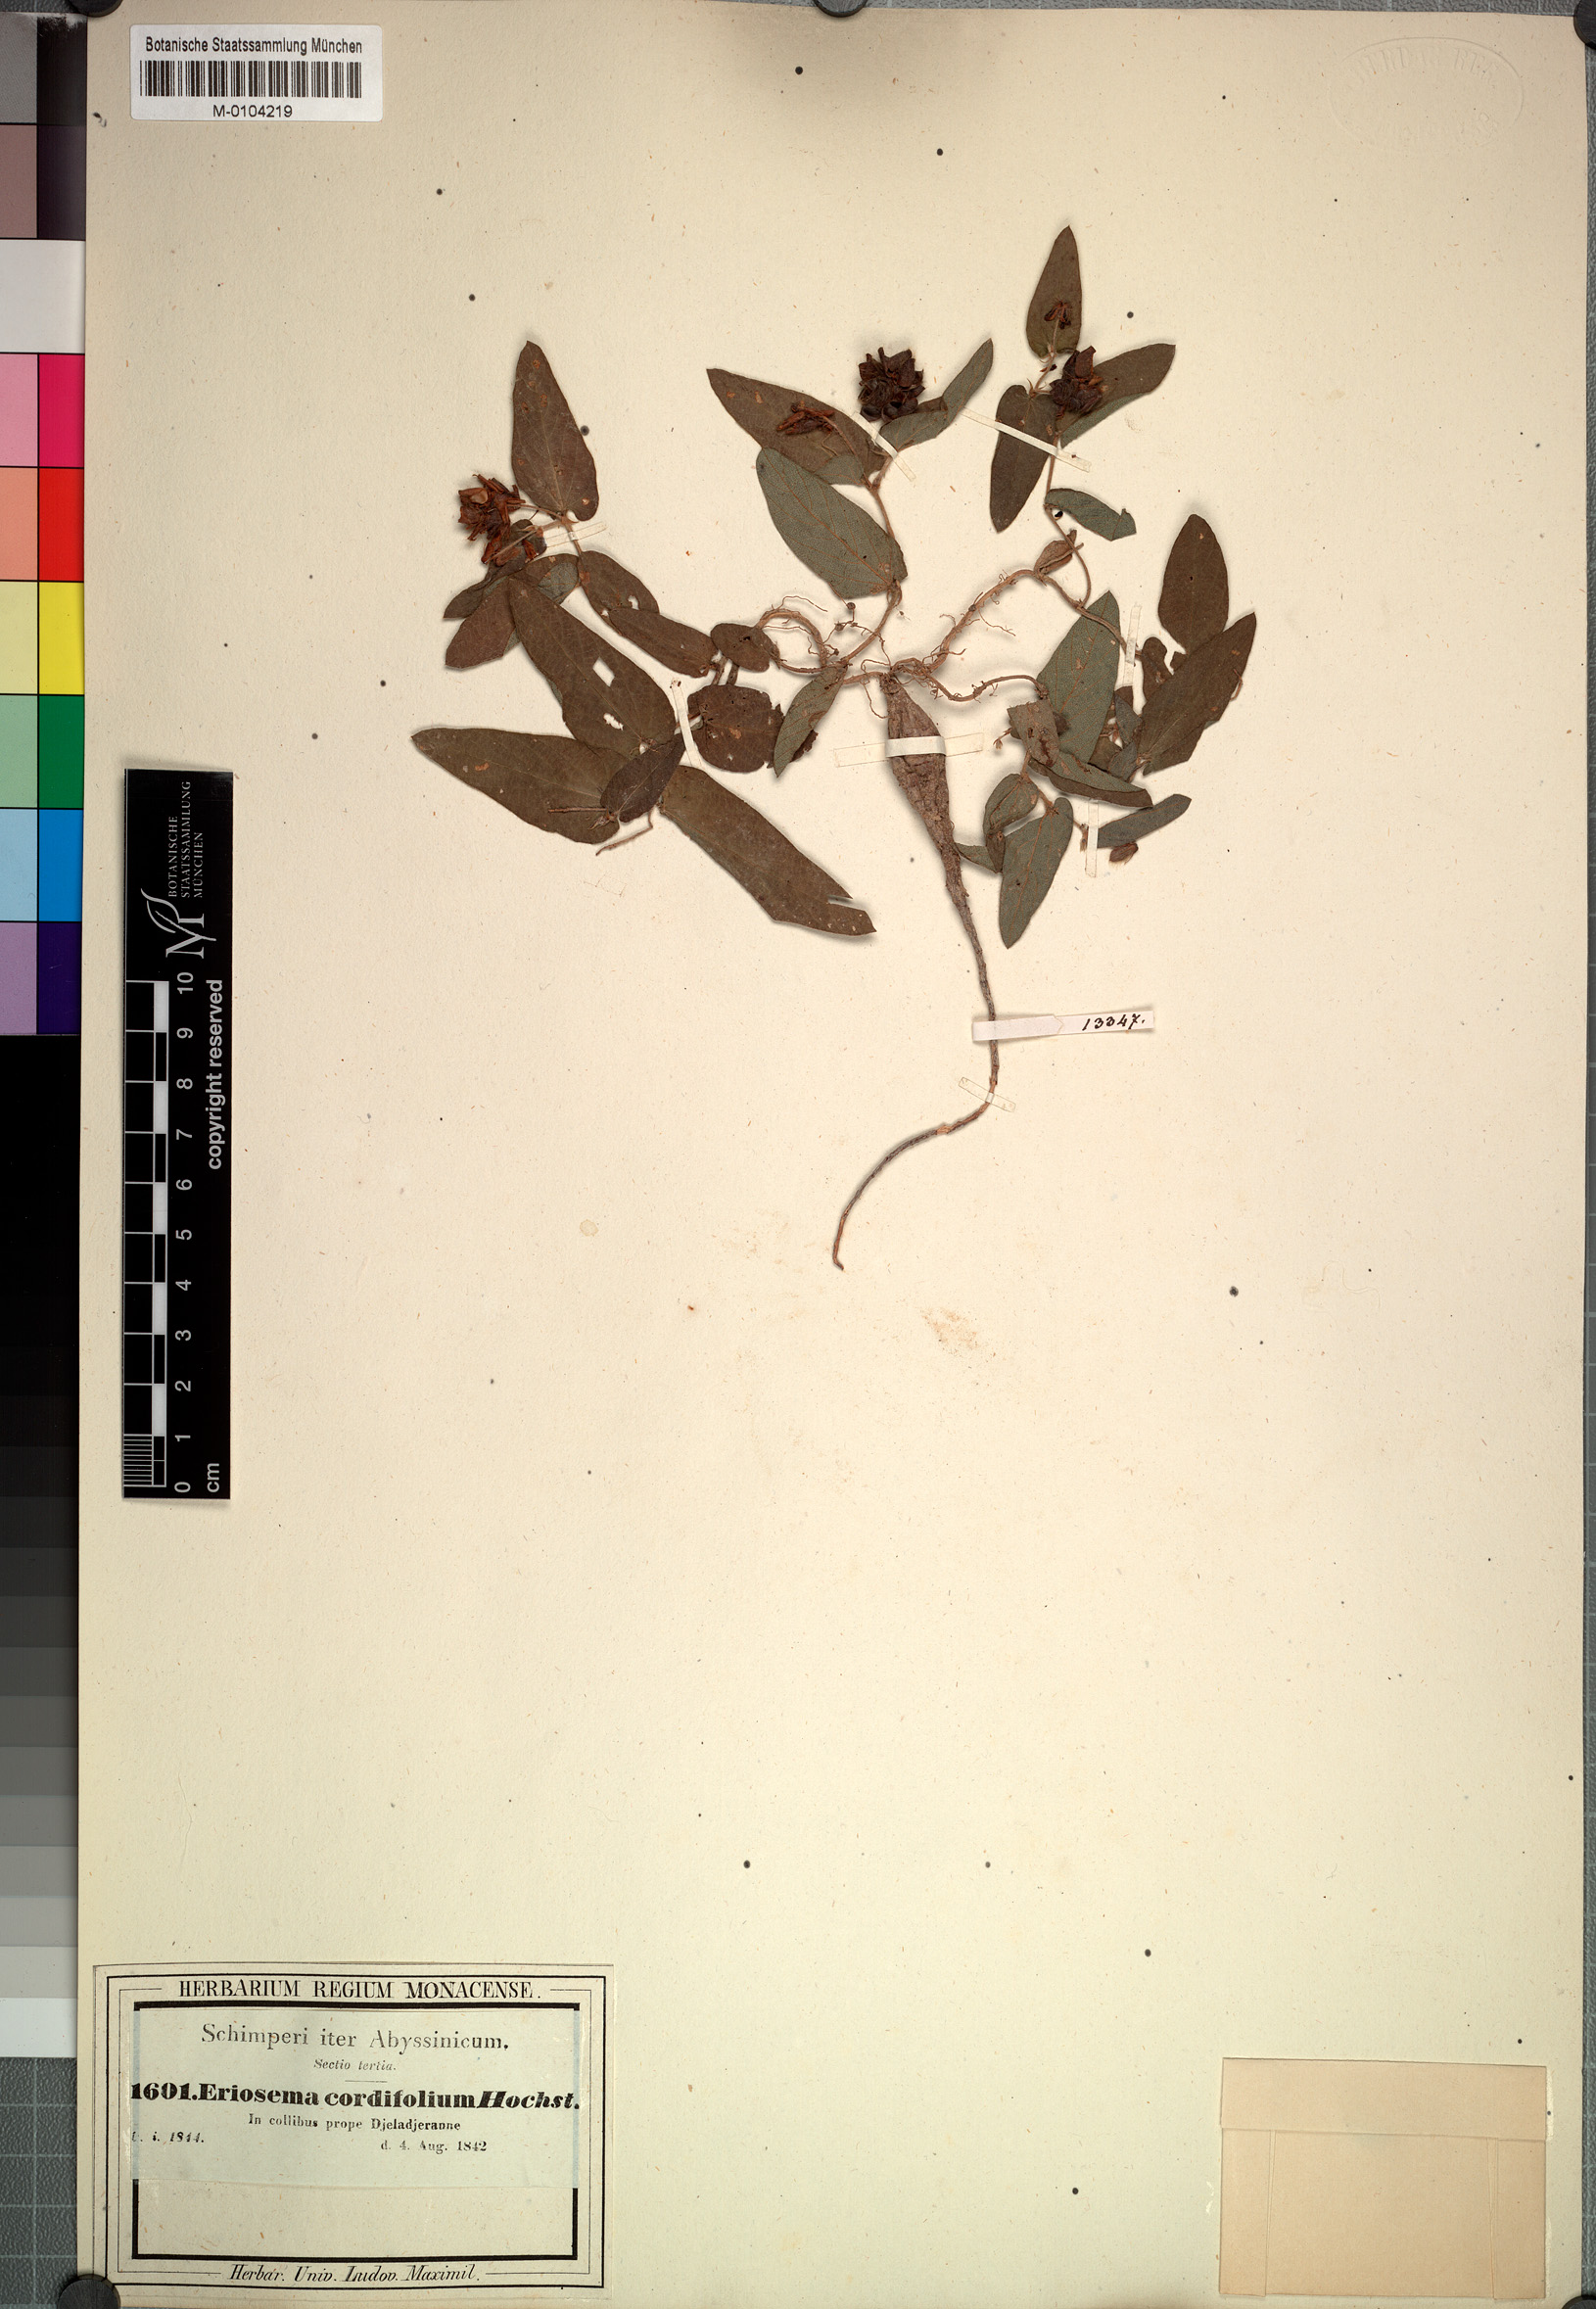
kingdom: Plantae
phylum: Tracheophyta
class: Magnoliopsida
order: Fabales
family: Fabaceae
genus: Eriosema
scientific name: Eriosema cordifolium
